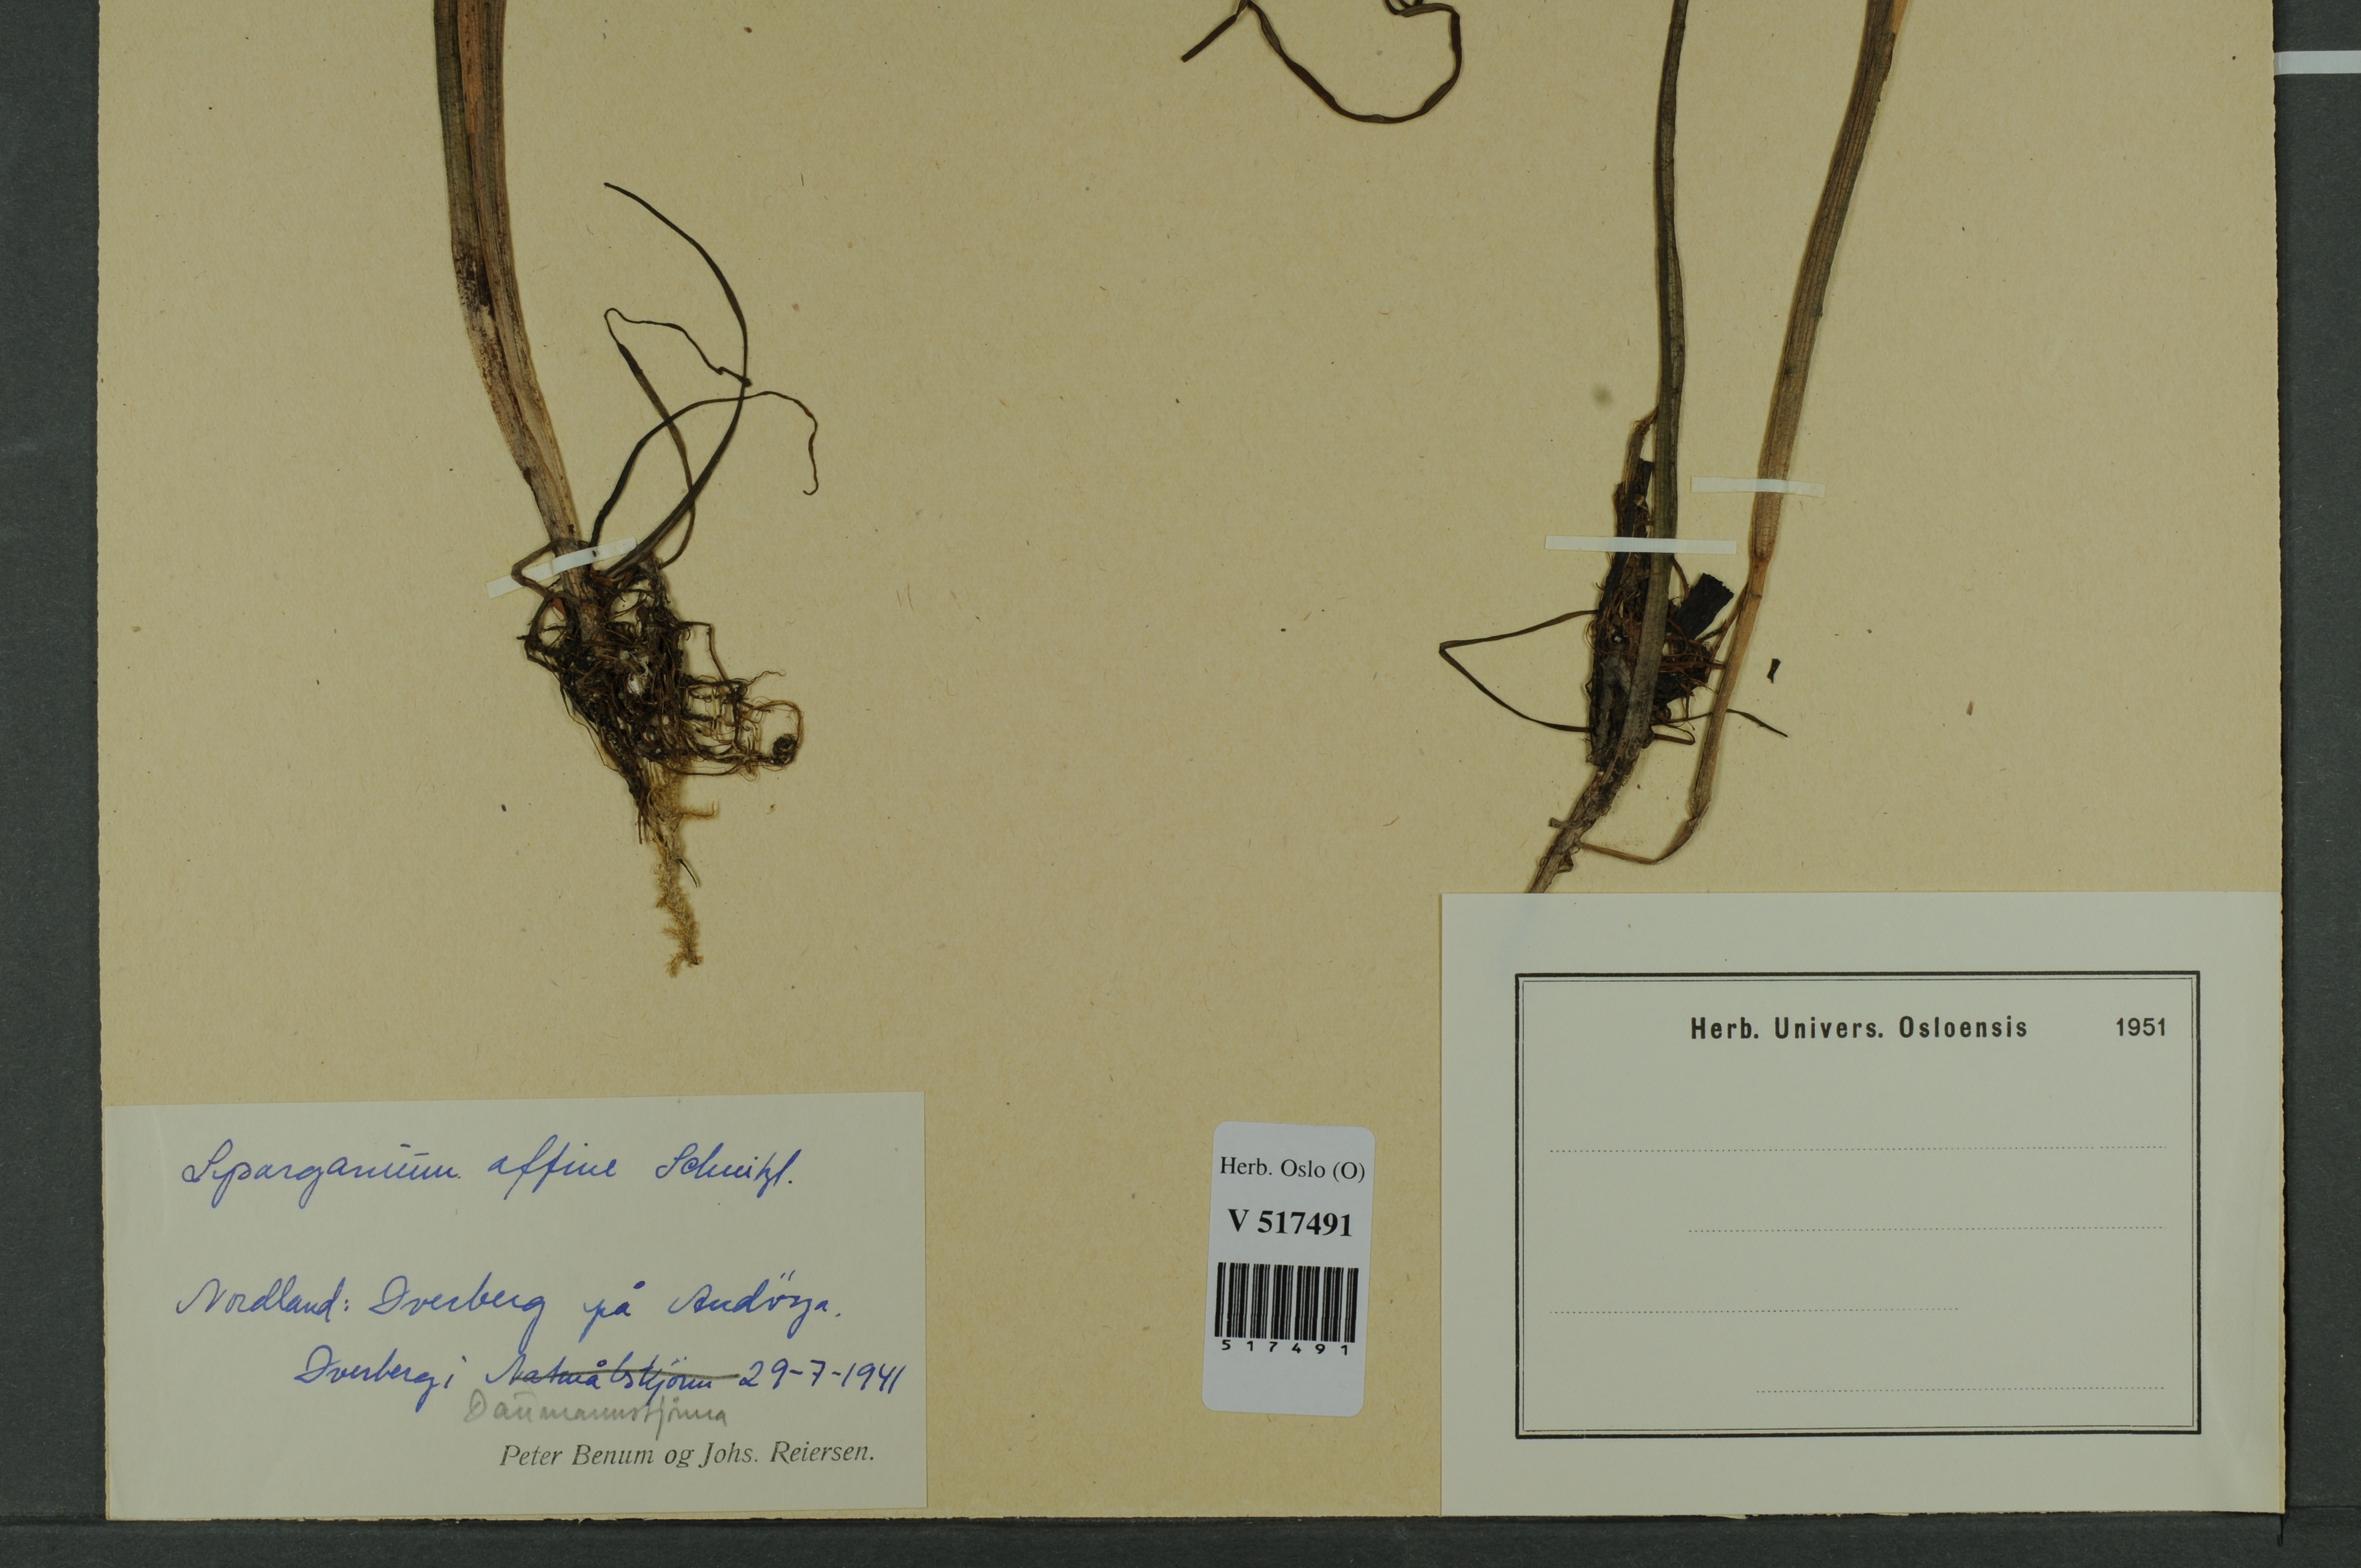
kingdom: Plantae
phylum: Tracheophyta
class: Liliopsida
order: Poales
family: Typhaceae
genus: Sparganium
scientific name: Sparganium angustifolium
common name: Floating bur-reed
